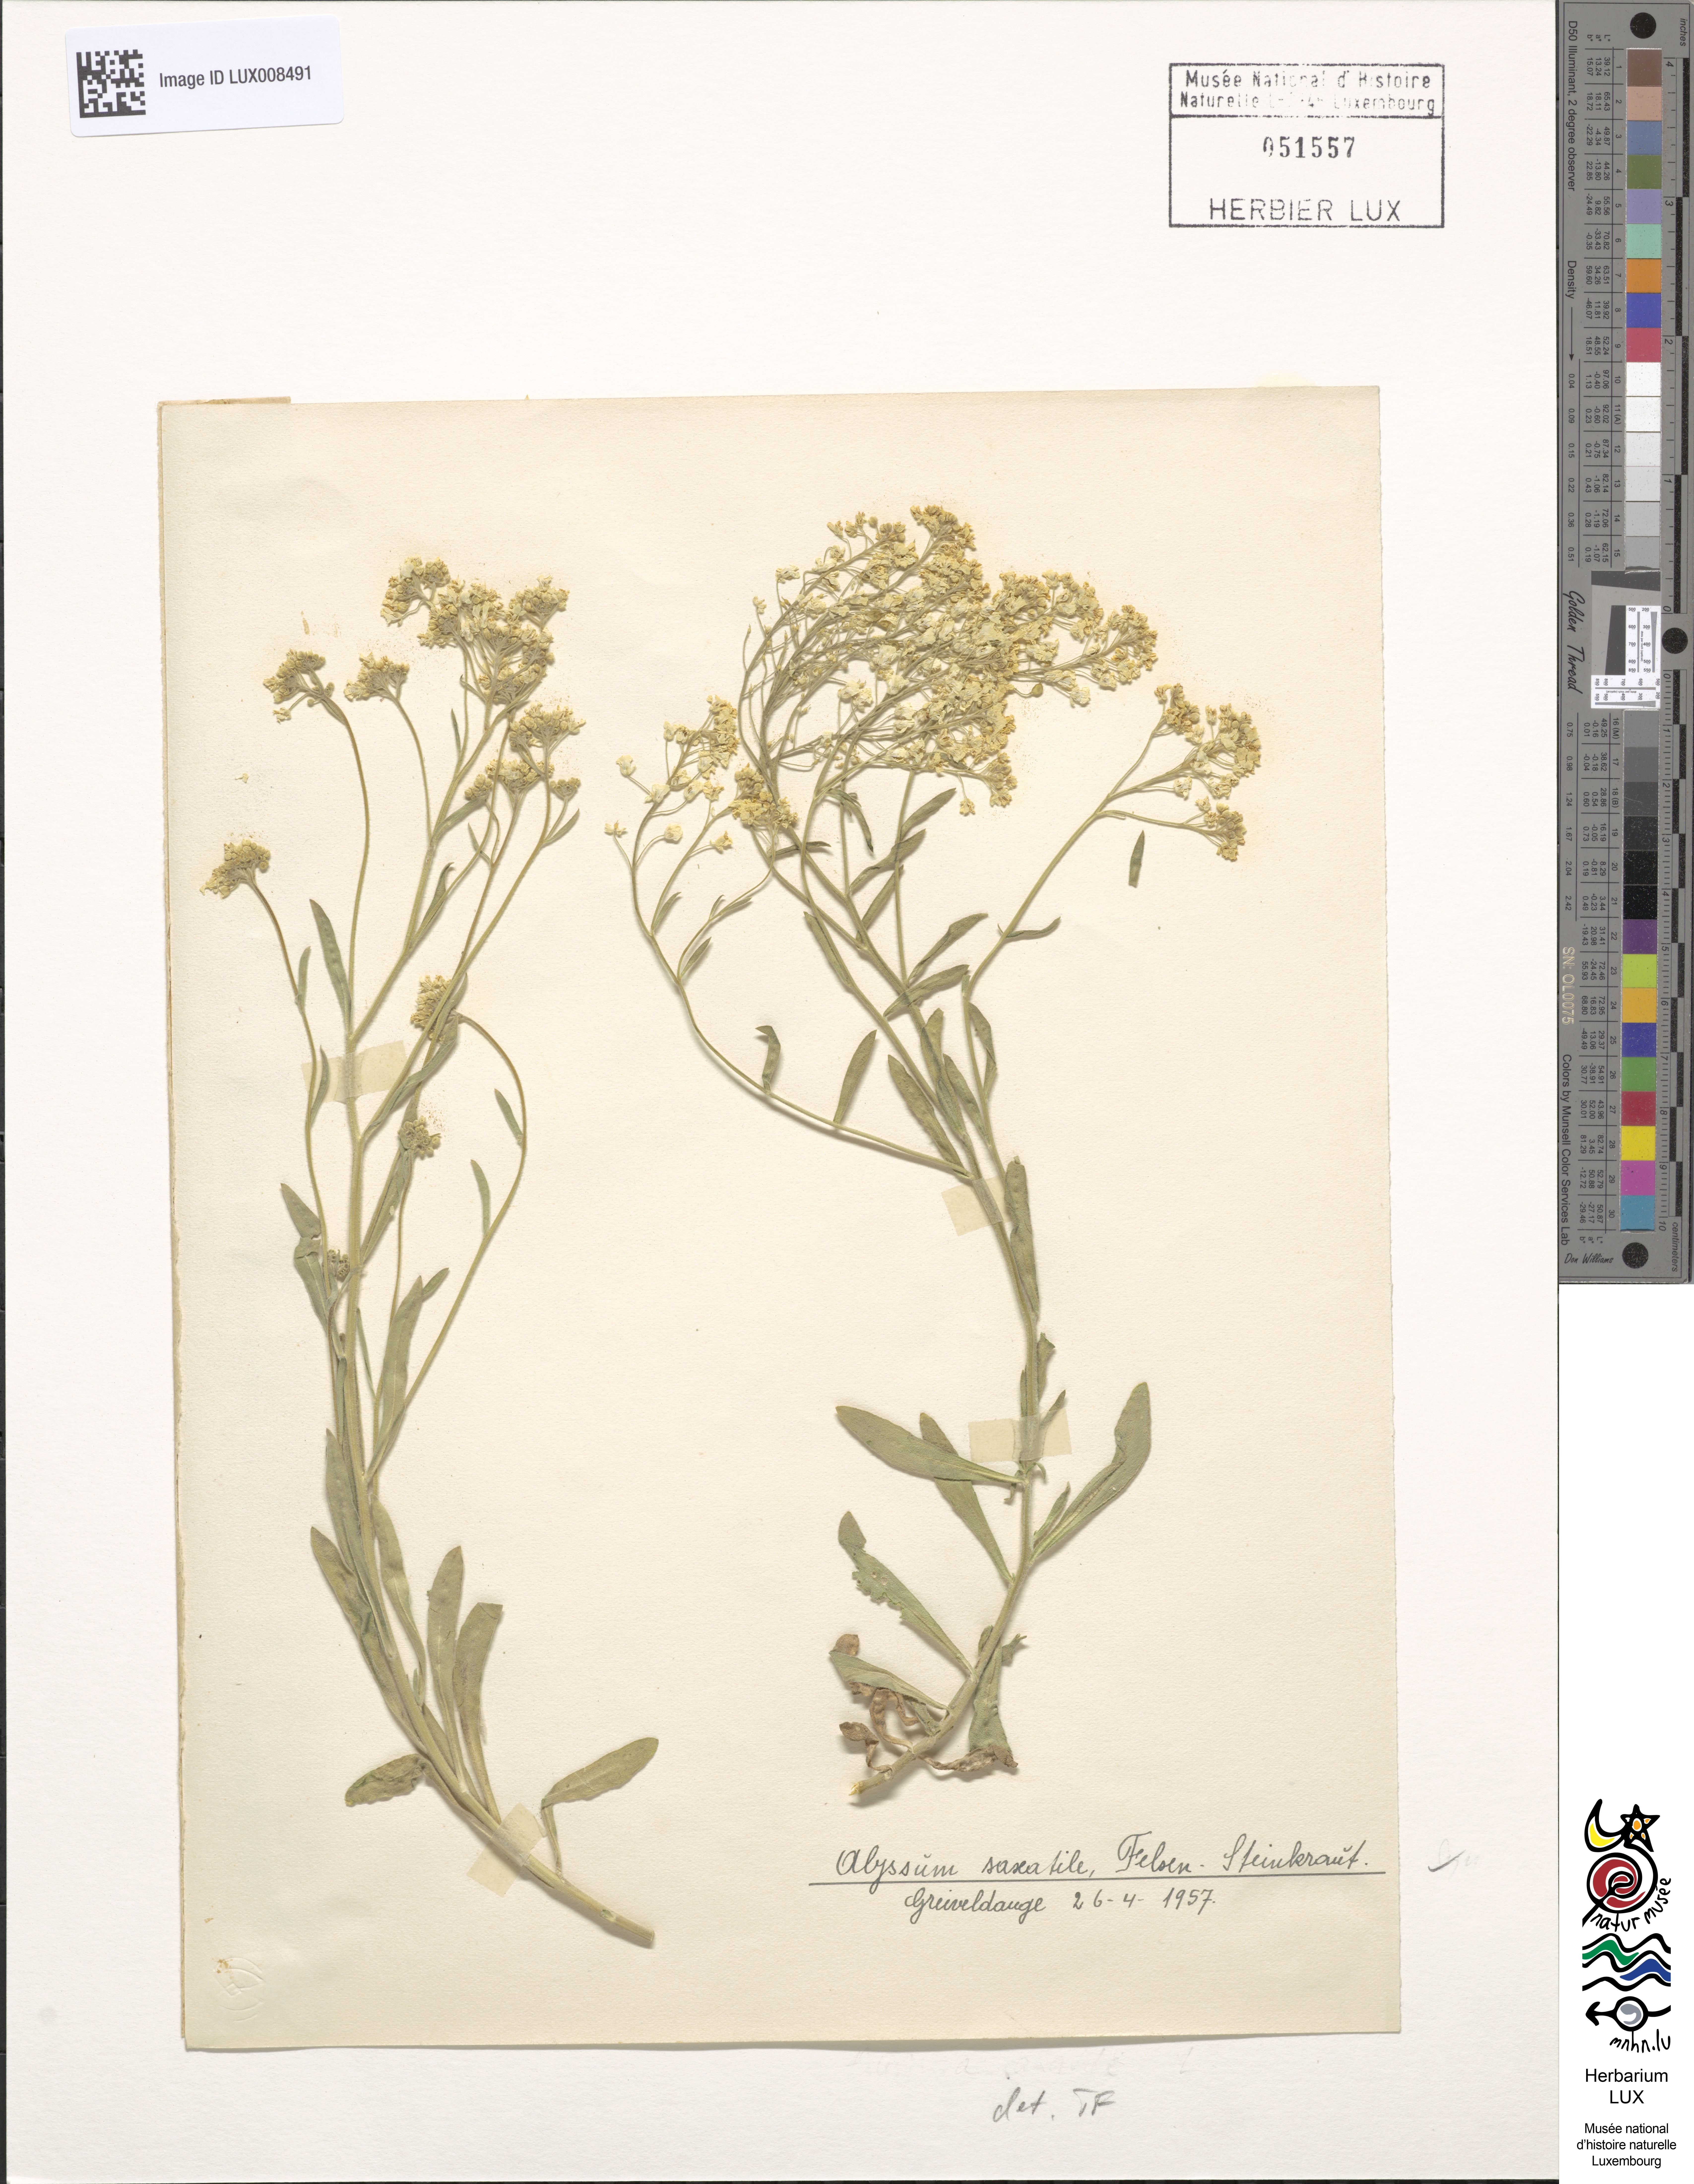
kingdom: Plantae
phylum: Tracheophyta
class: Magnoliopsida
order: Brassicales
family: Brassicaceae
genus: Alyssum
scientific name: Alyssum saxatile
